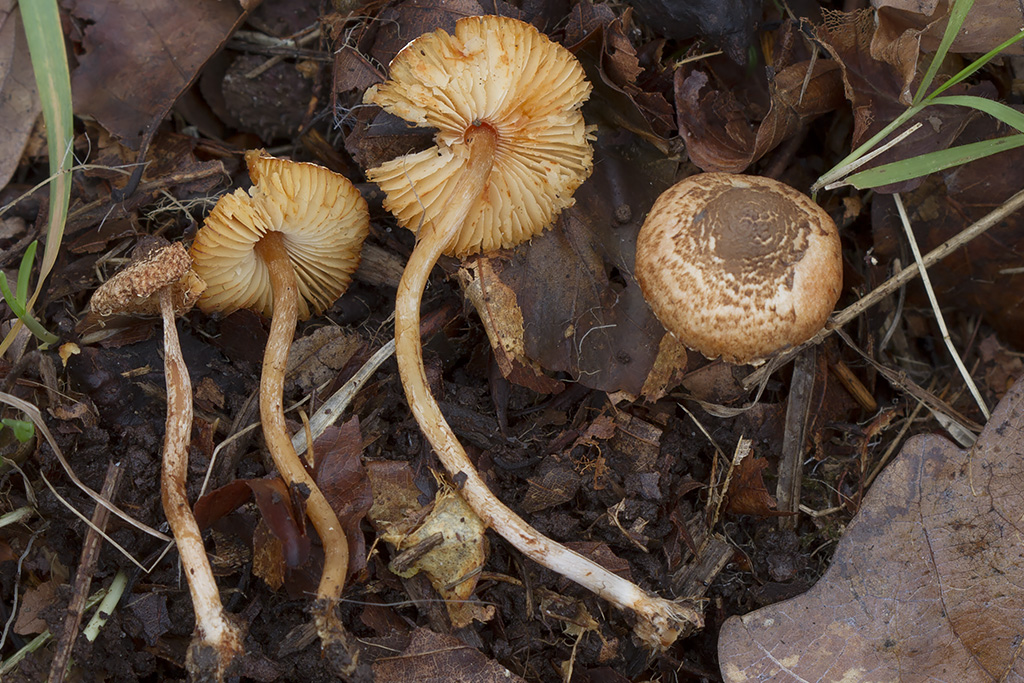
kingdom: Fungi
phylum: Basidiomycota
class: Agaricomycetes
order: Agaricales
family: Agaricaceae
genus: Lepiota
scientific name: Lepiota castanea
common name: kastaniebrun parasolhat
